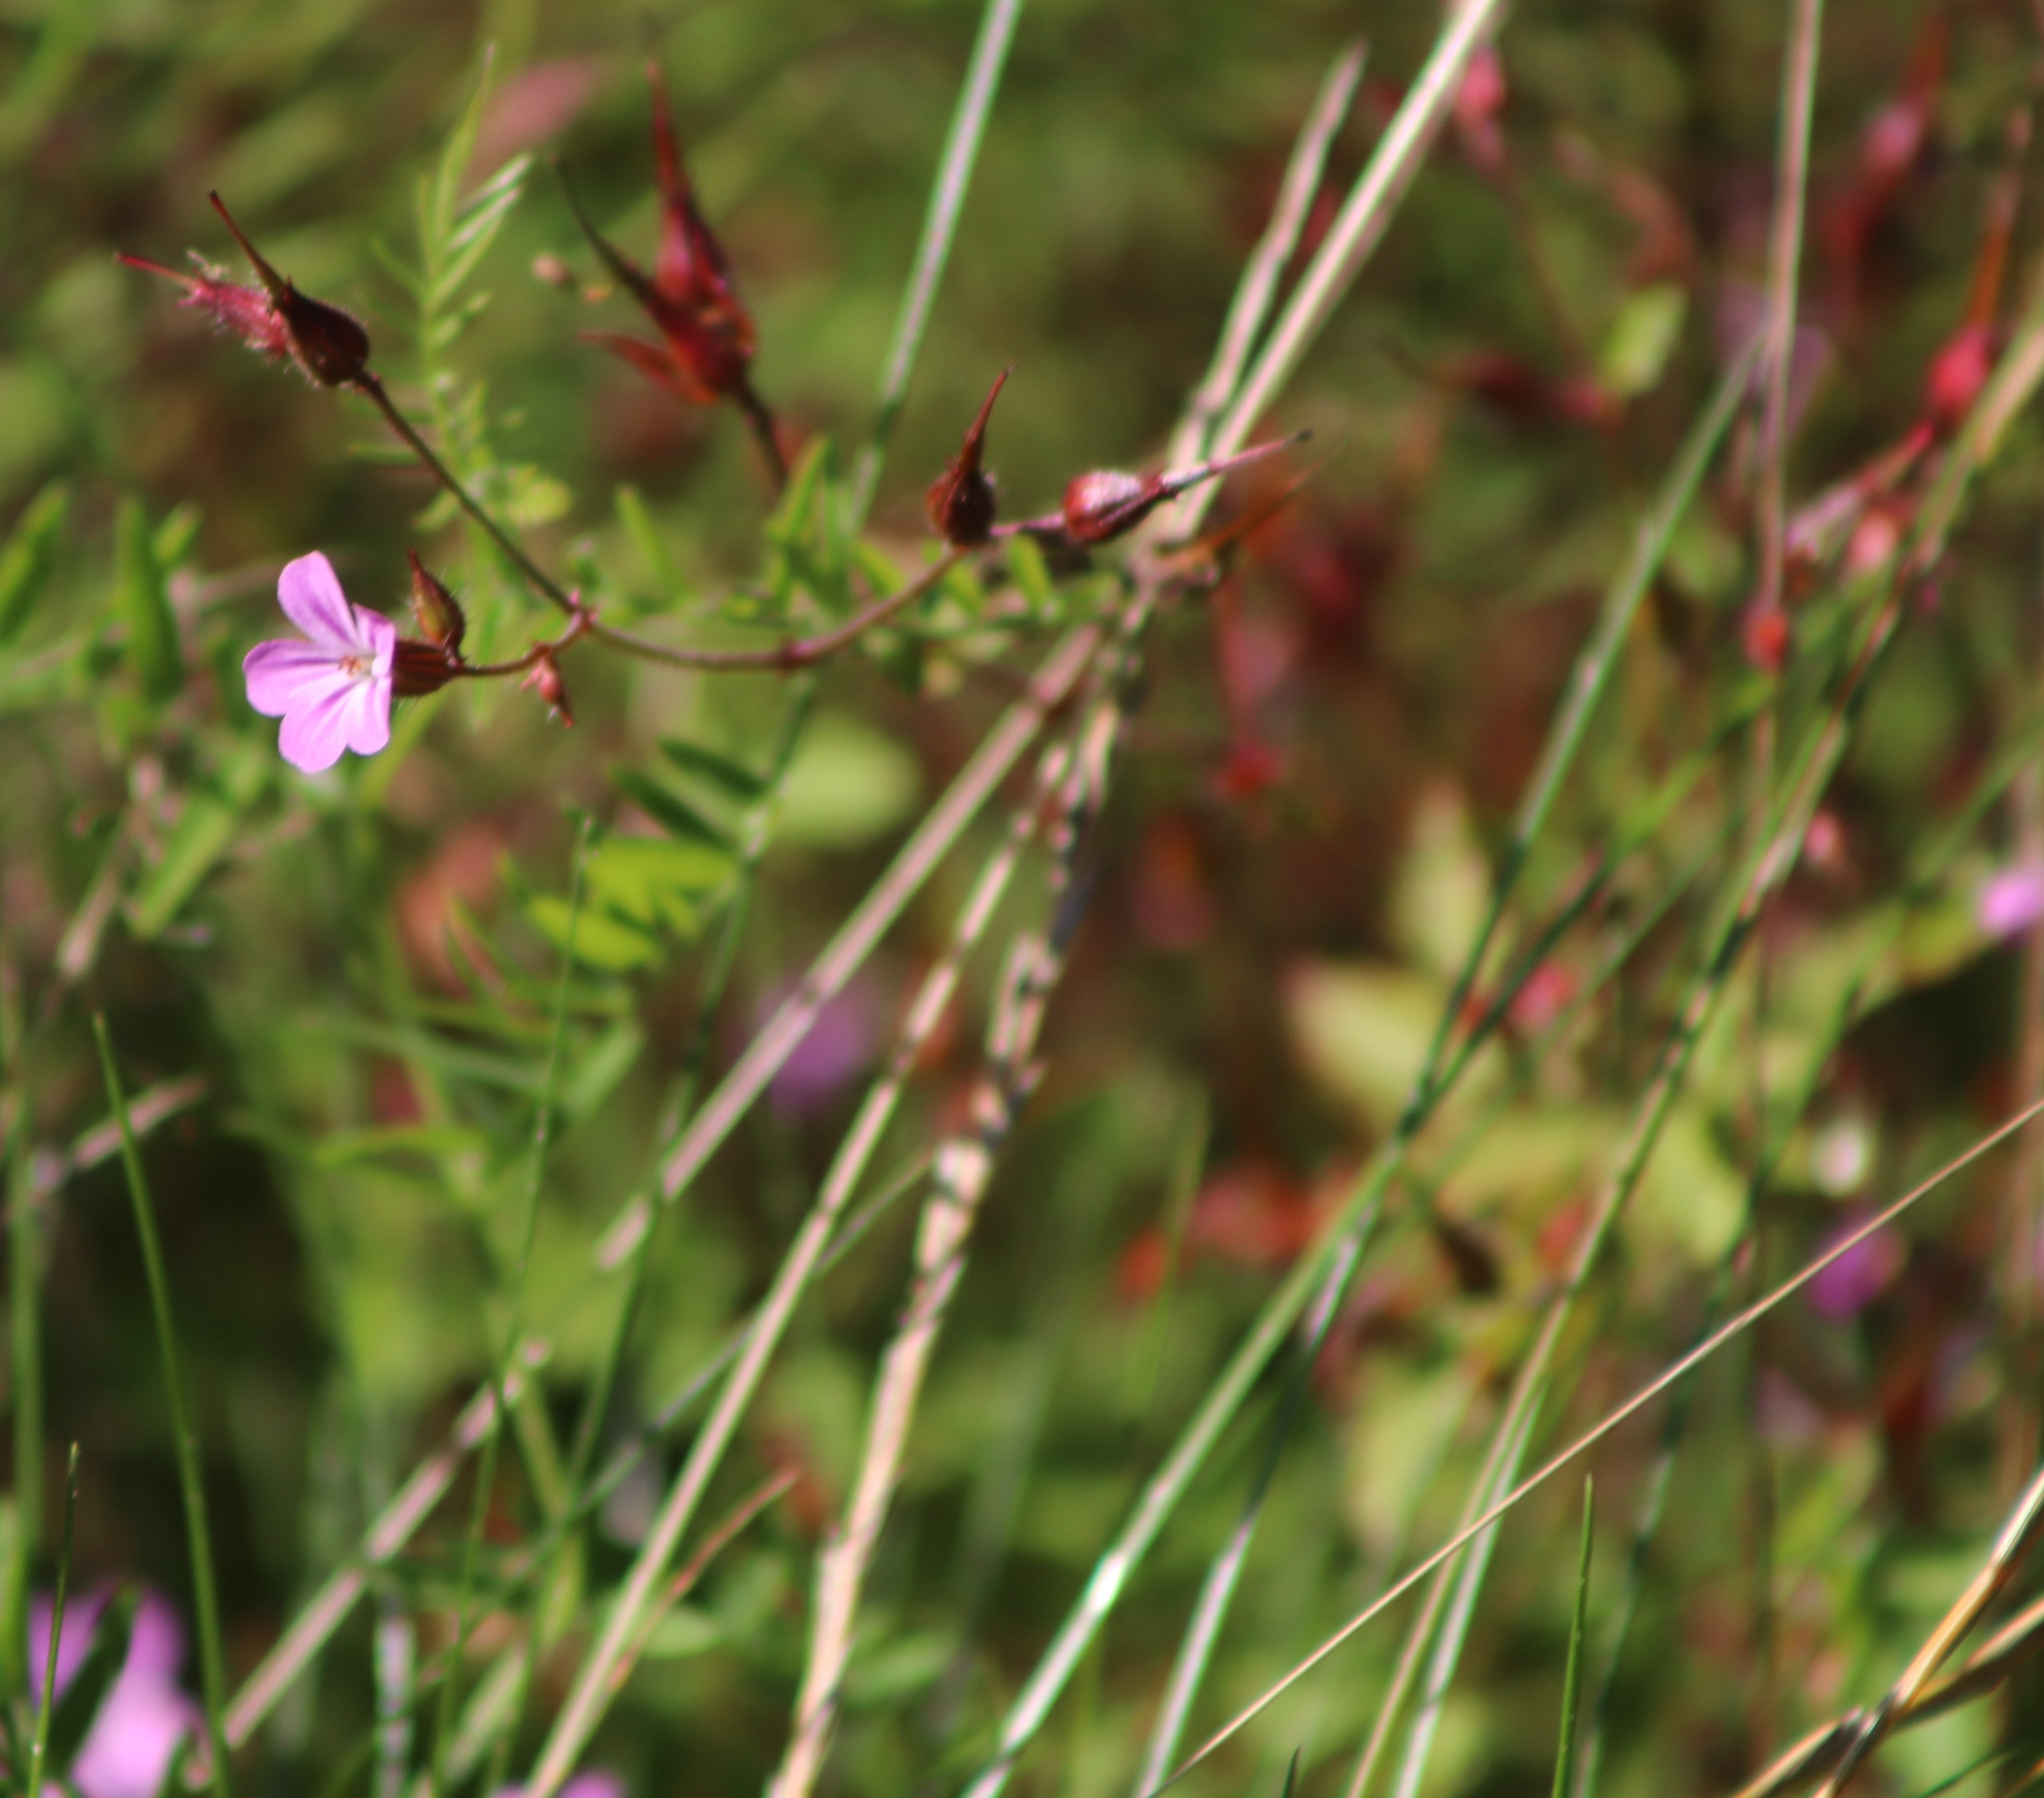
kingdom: Plantae
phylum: Tracheophyta
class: Magnoliopsida
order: Geraniales
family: Geraniaceae
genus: Geranium
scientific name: Geranium robertianum
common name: Stinkende storkenæb
